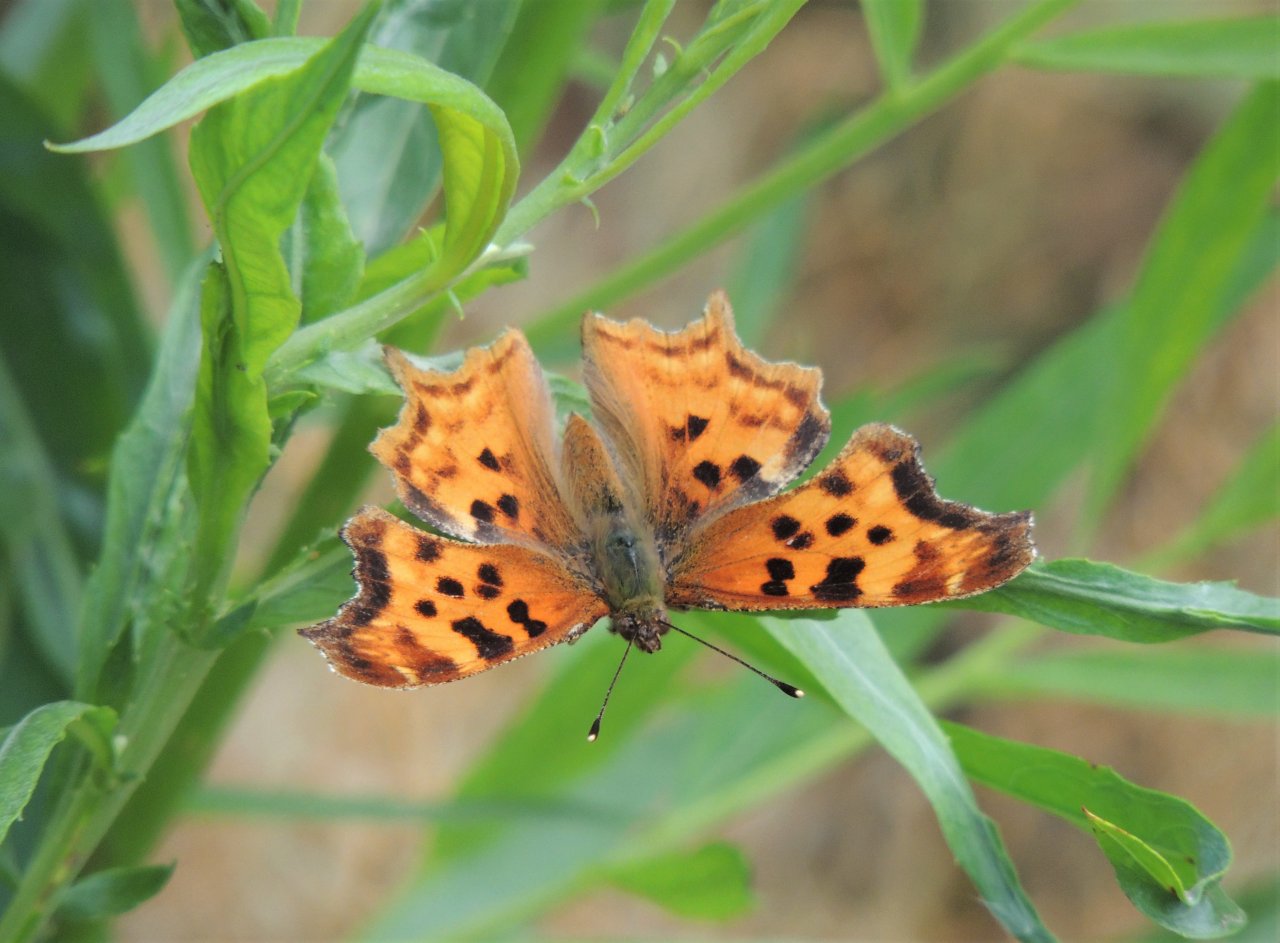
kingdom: Animalia
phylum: Arthropoda
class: Insecta
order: Lepidoptera
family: Nymphalidae
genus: Polygonia
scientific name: Polygonia satyrus
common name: Satyr Comma
